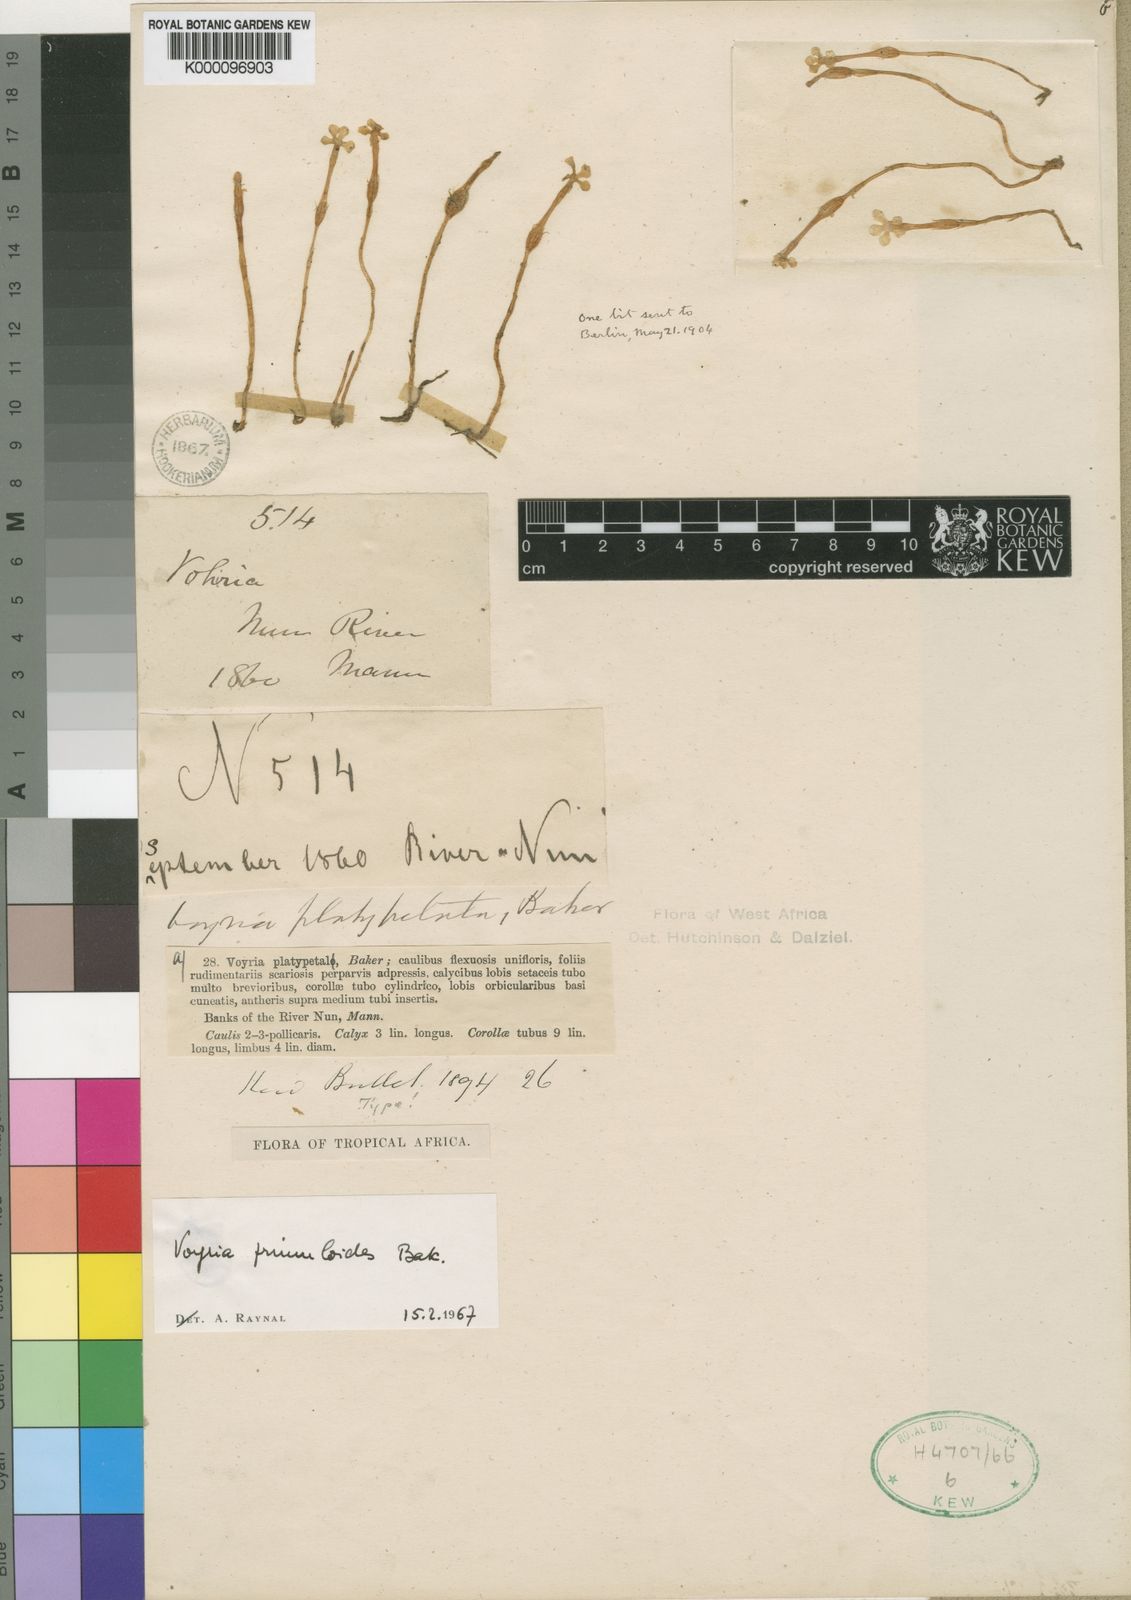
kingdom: Plantae
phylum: Tracheophyta
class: Magnoliopsida
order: Gentianales
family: Gentianaceae
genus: Voyria
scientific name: Voyria primuloides
